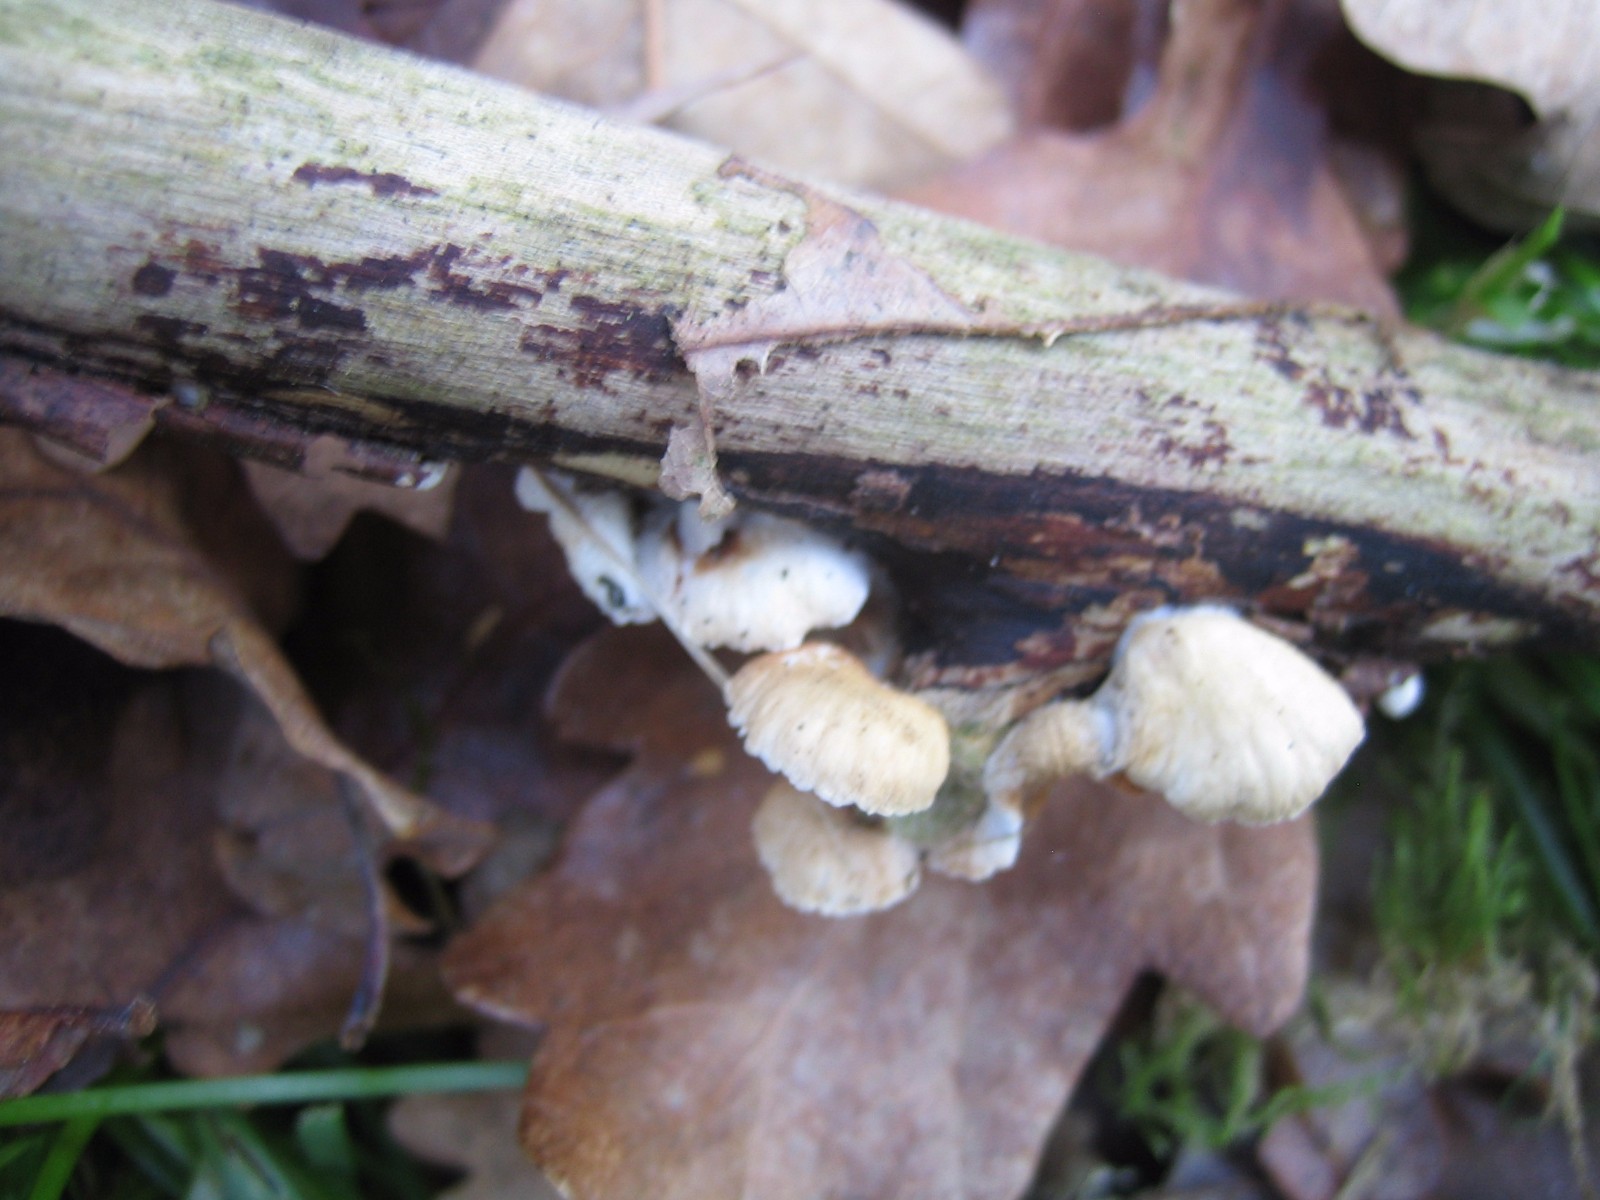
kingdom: Fungi
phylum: Basidiomycota
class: Agaricomycetes
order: Agaricales
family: Crepidotaceae
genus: Crepidotus
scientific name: Crepidotus
